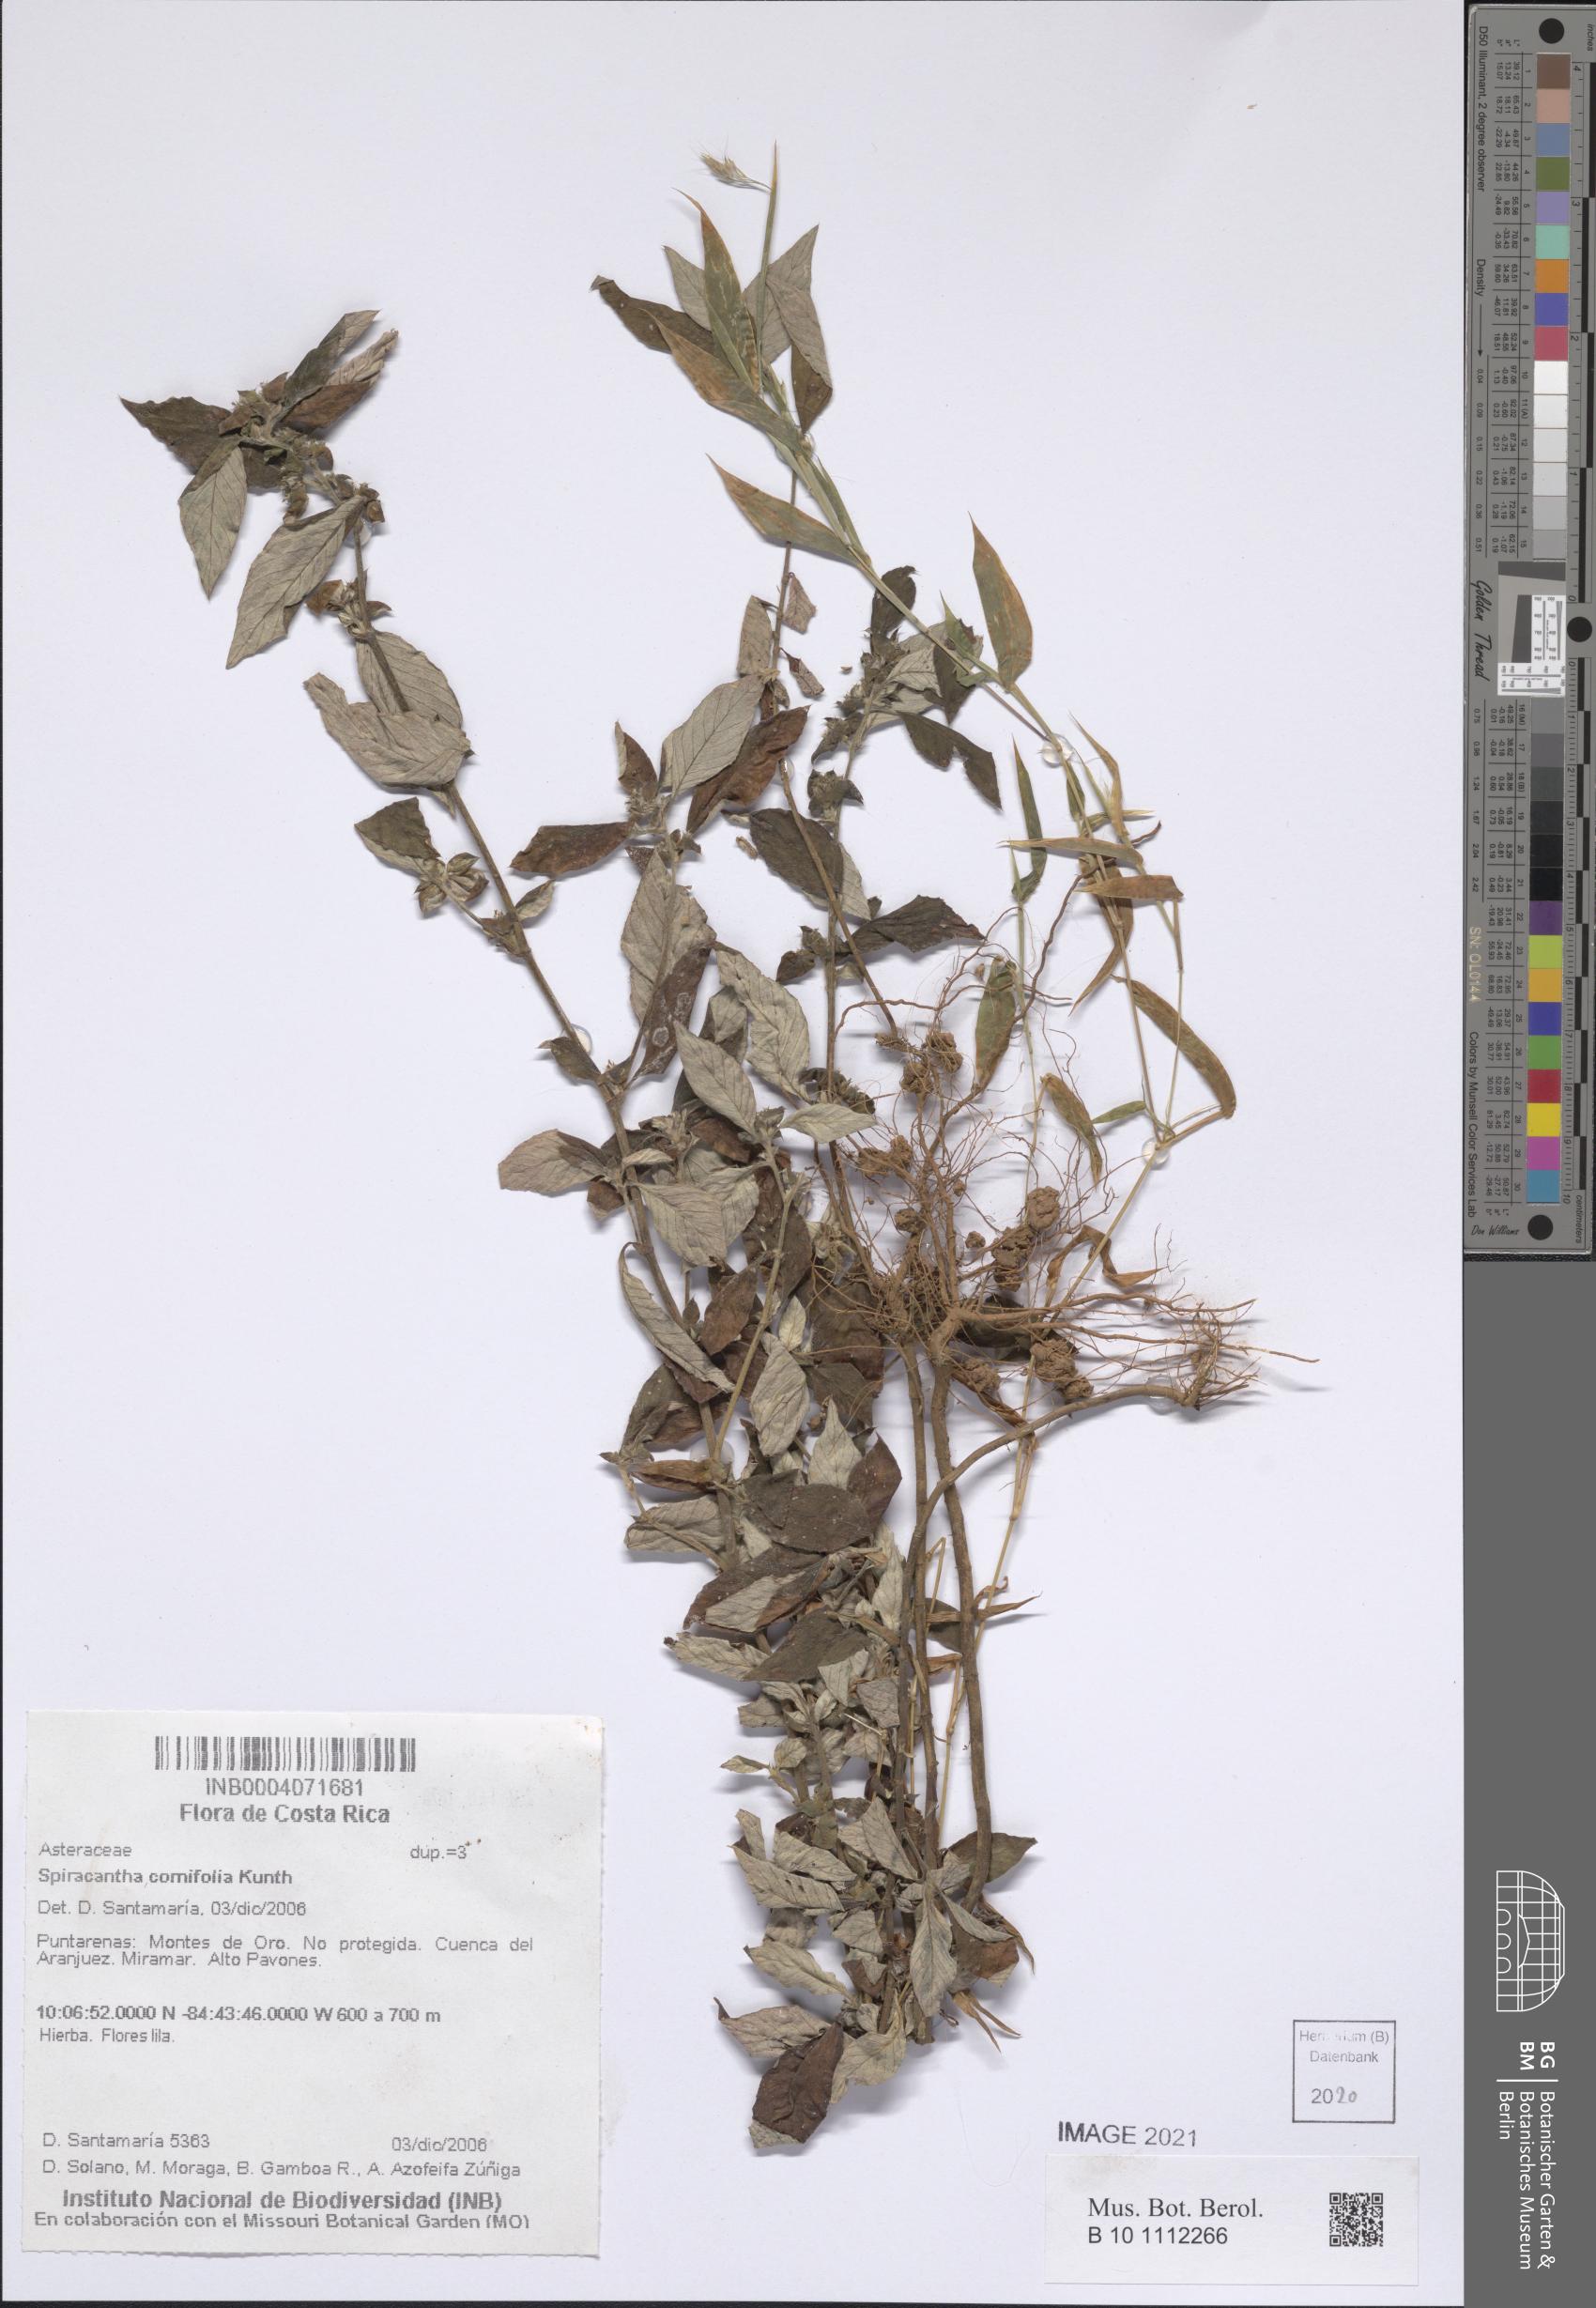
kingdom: Plantae
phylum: Tracheophyta
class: Magnoliopsida
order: Asterales
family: Asteraceae
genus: Spiracantha
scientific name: Spiracantha cornifolia
